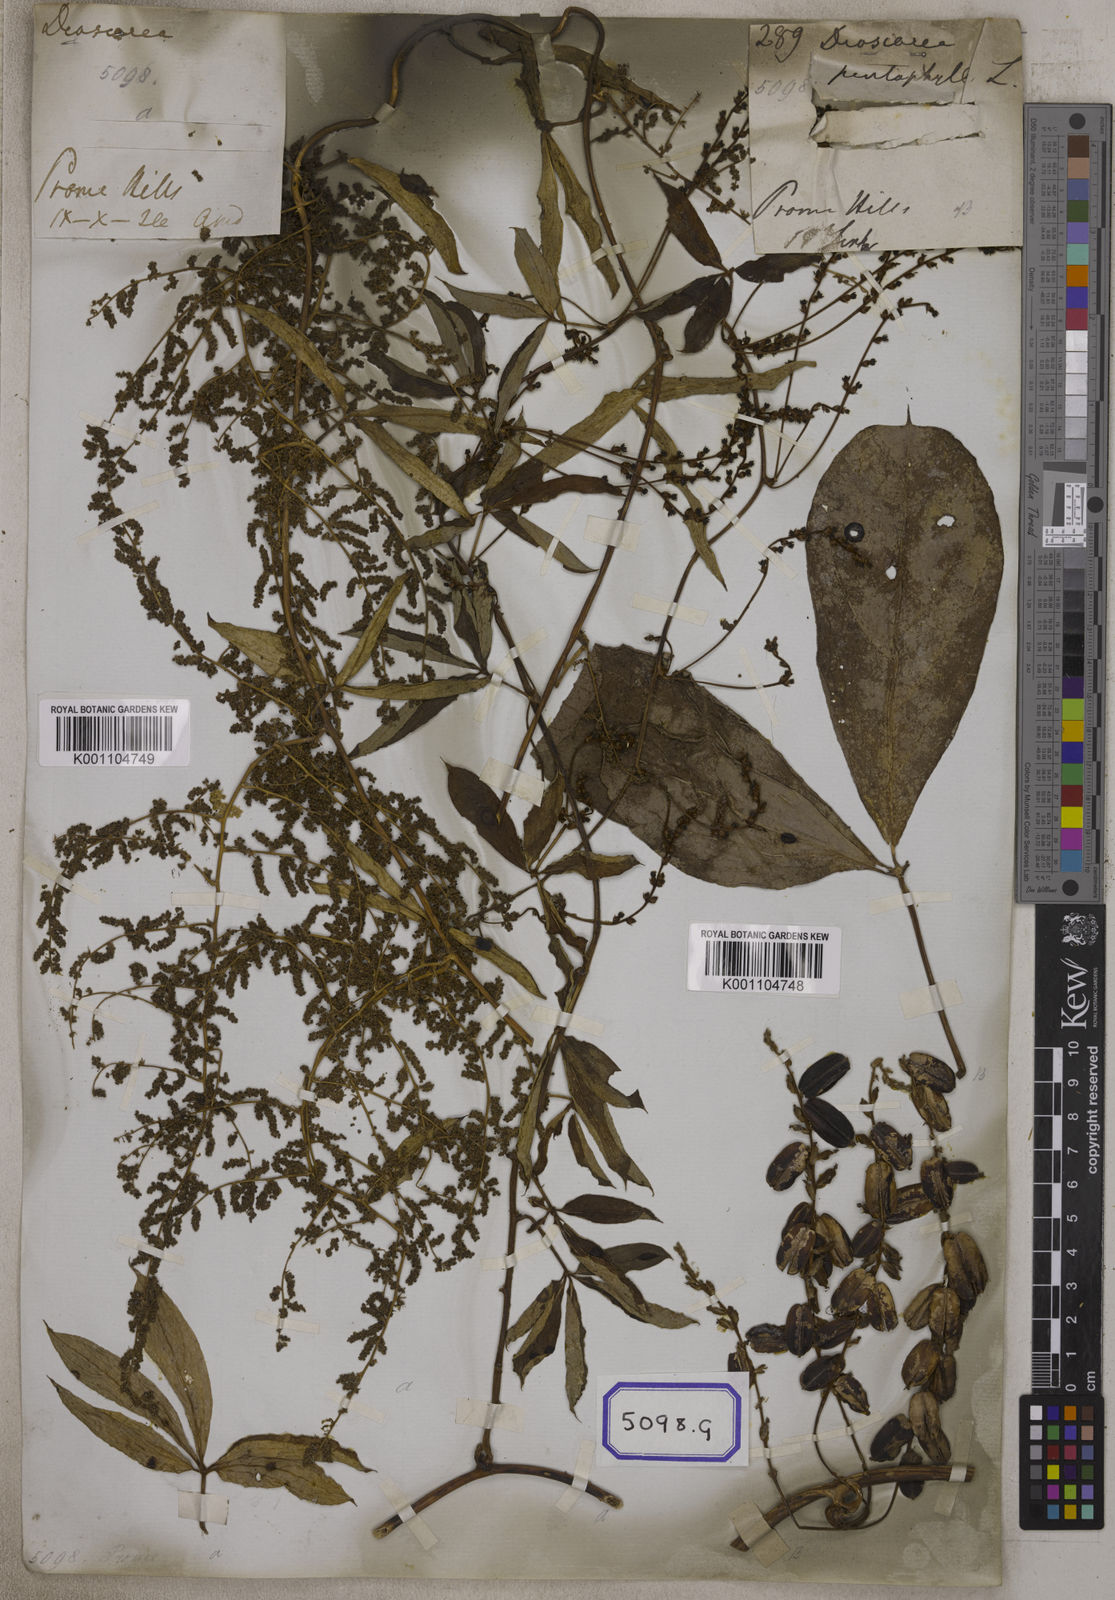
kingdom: Plantae
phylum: Tracheophyta
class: Liliopsida
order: Dioscoreales
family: Dioscoreaceae
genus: Dioscorea
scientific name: Dioscorea
